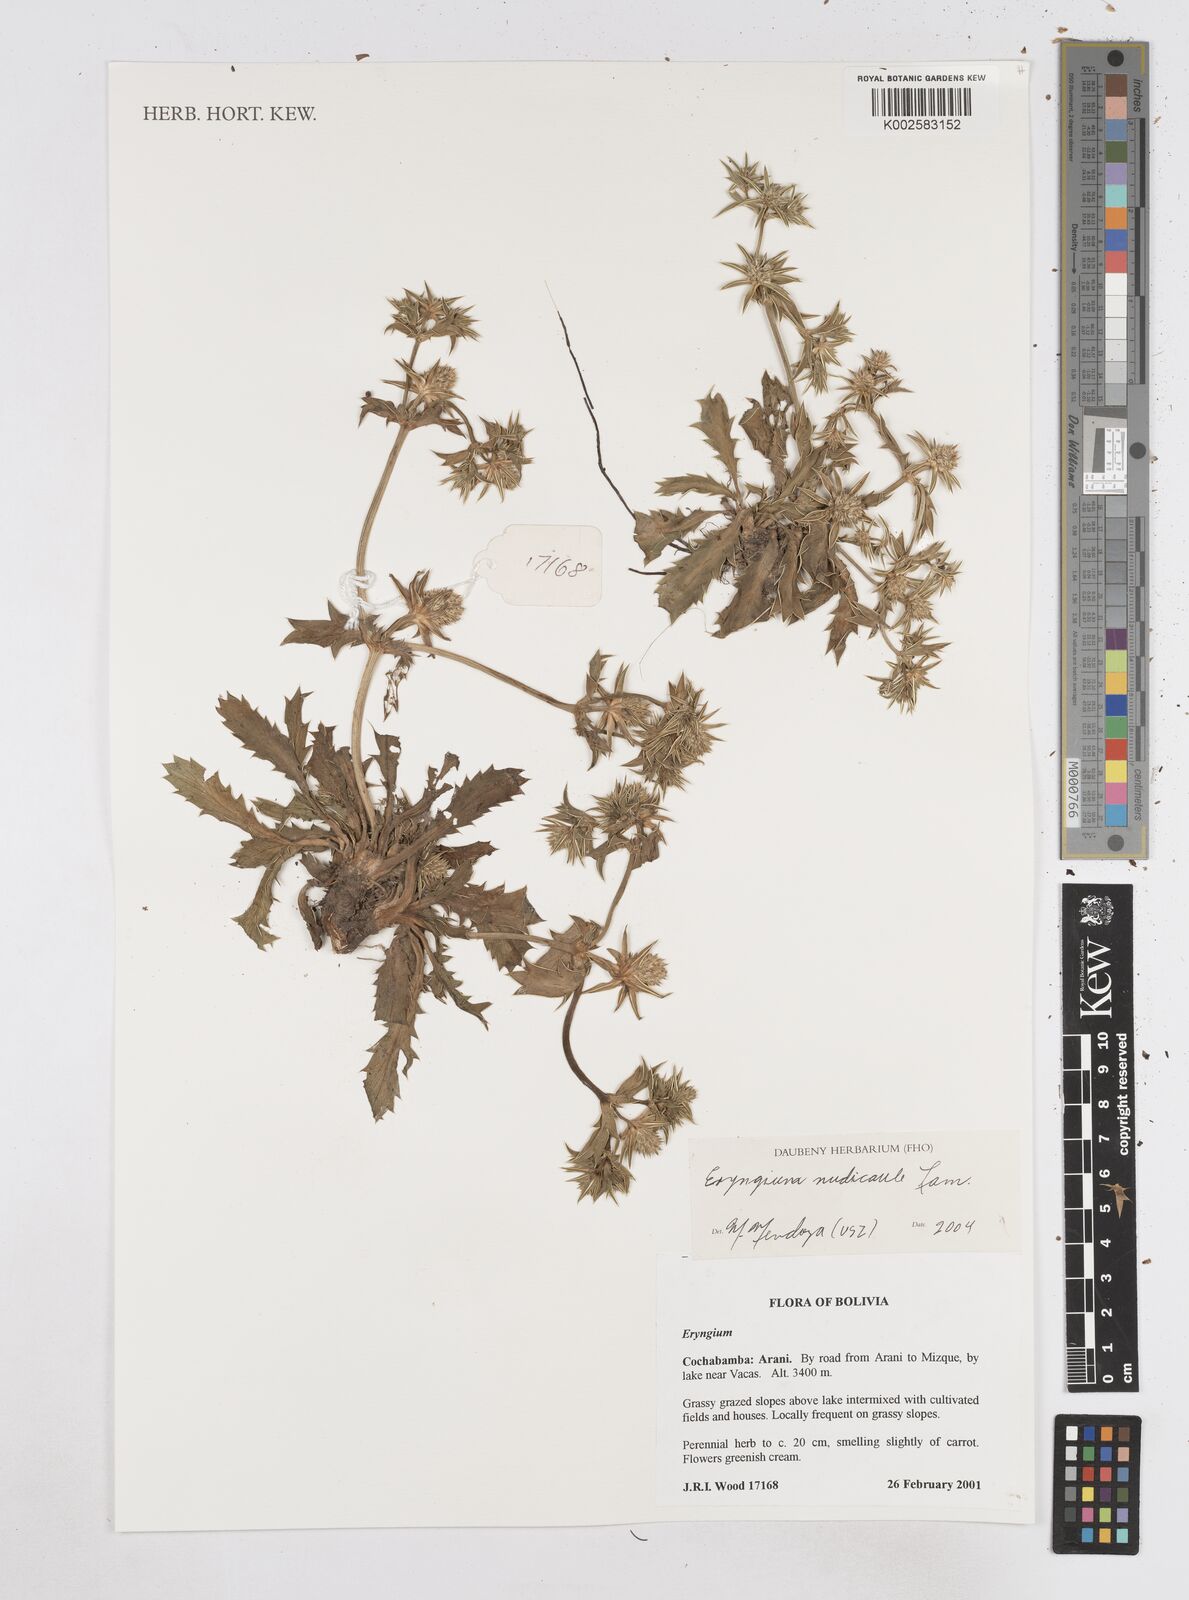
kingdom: Plantae
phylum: Tracheophyta
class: Magnoliopsida
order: Apiales
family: Apiaceae
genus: Eryngium
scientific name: Eryngium nudicaule
